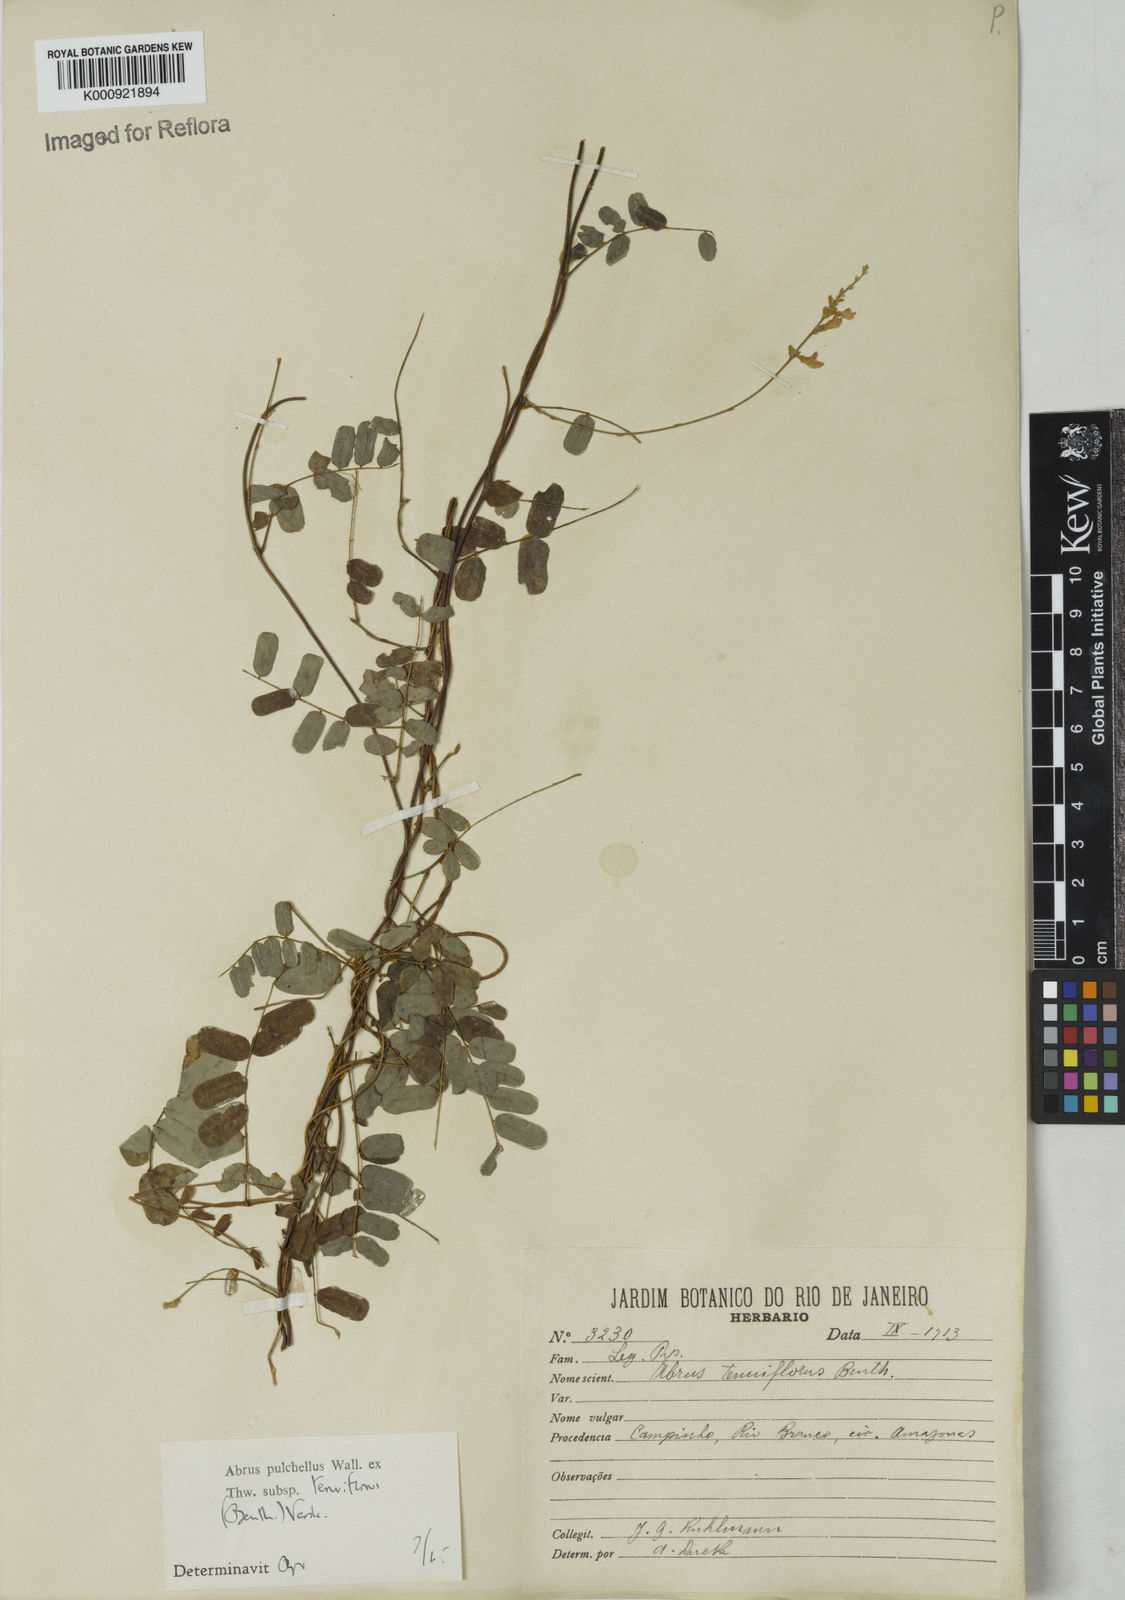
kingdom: Plantae
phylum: Tracheophyta
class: Magnoliopsida
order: Fabales
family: Fabaceae
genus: Abrus
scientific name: Abrus melanospermus
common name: Licorice-root
